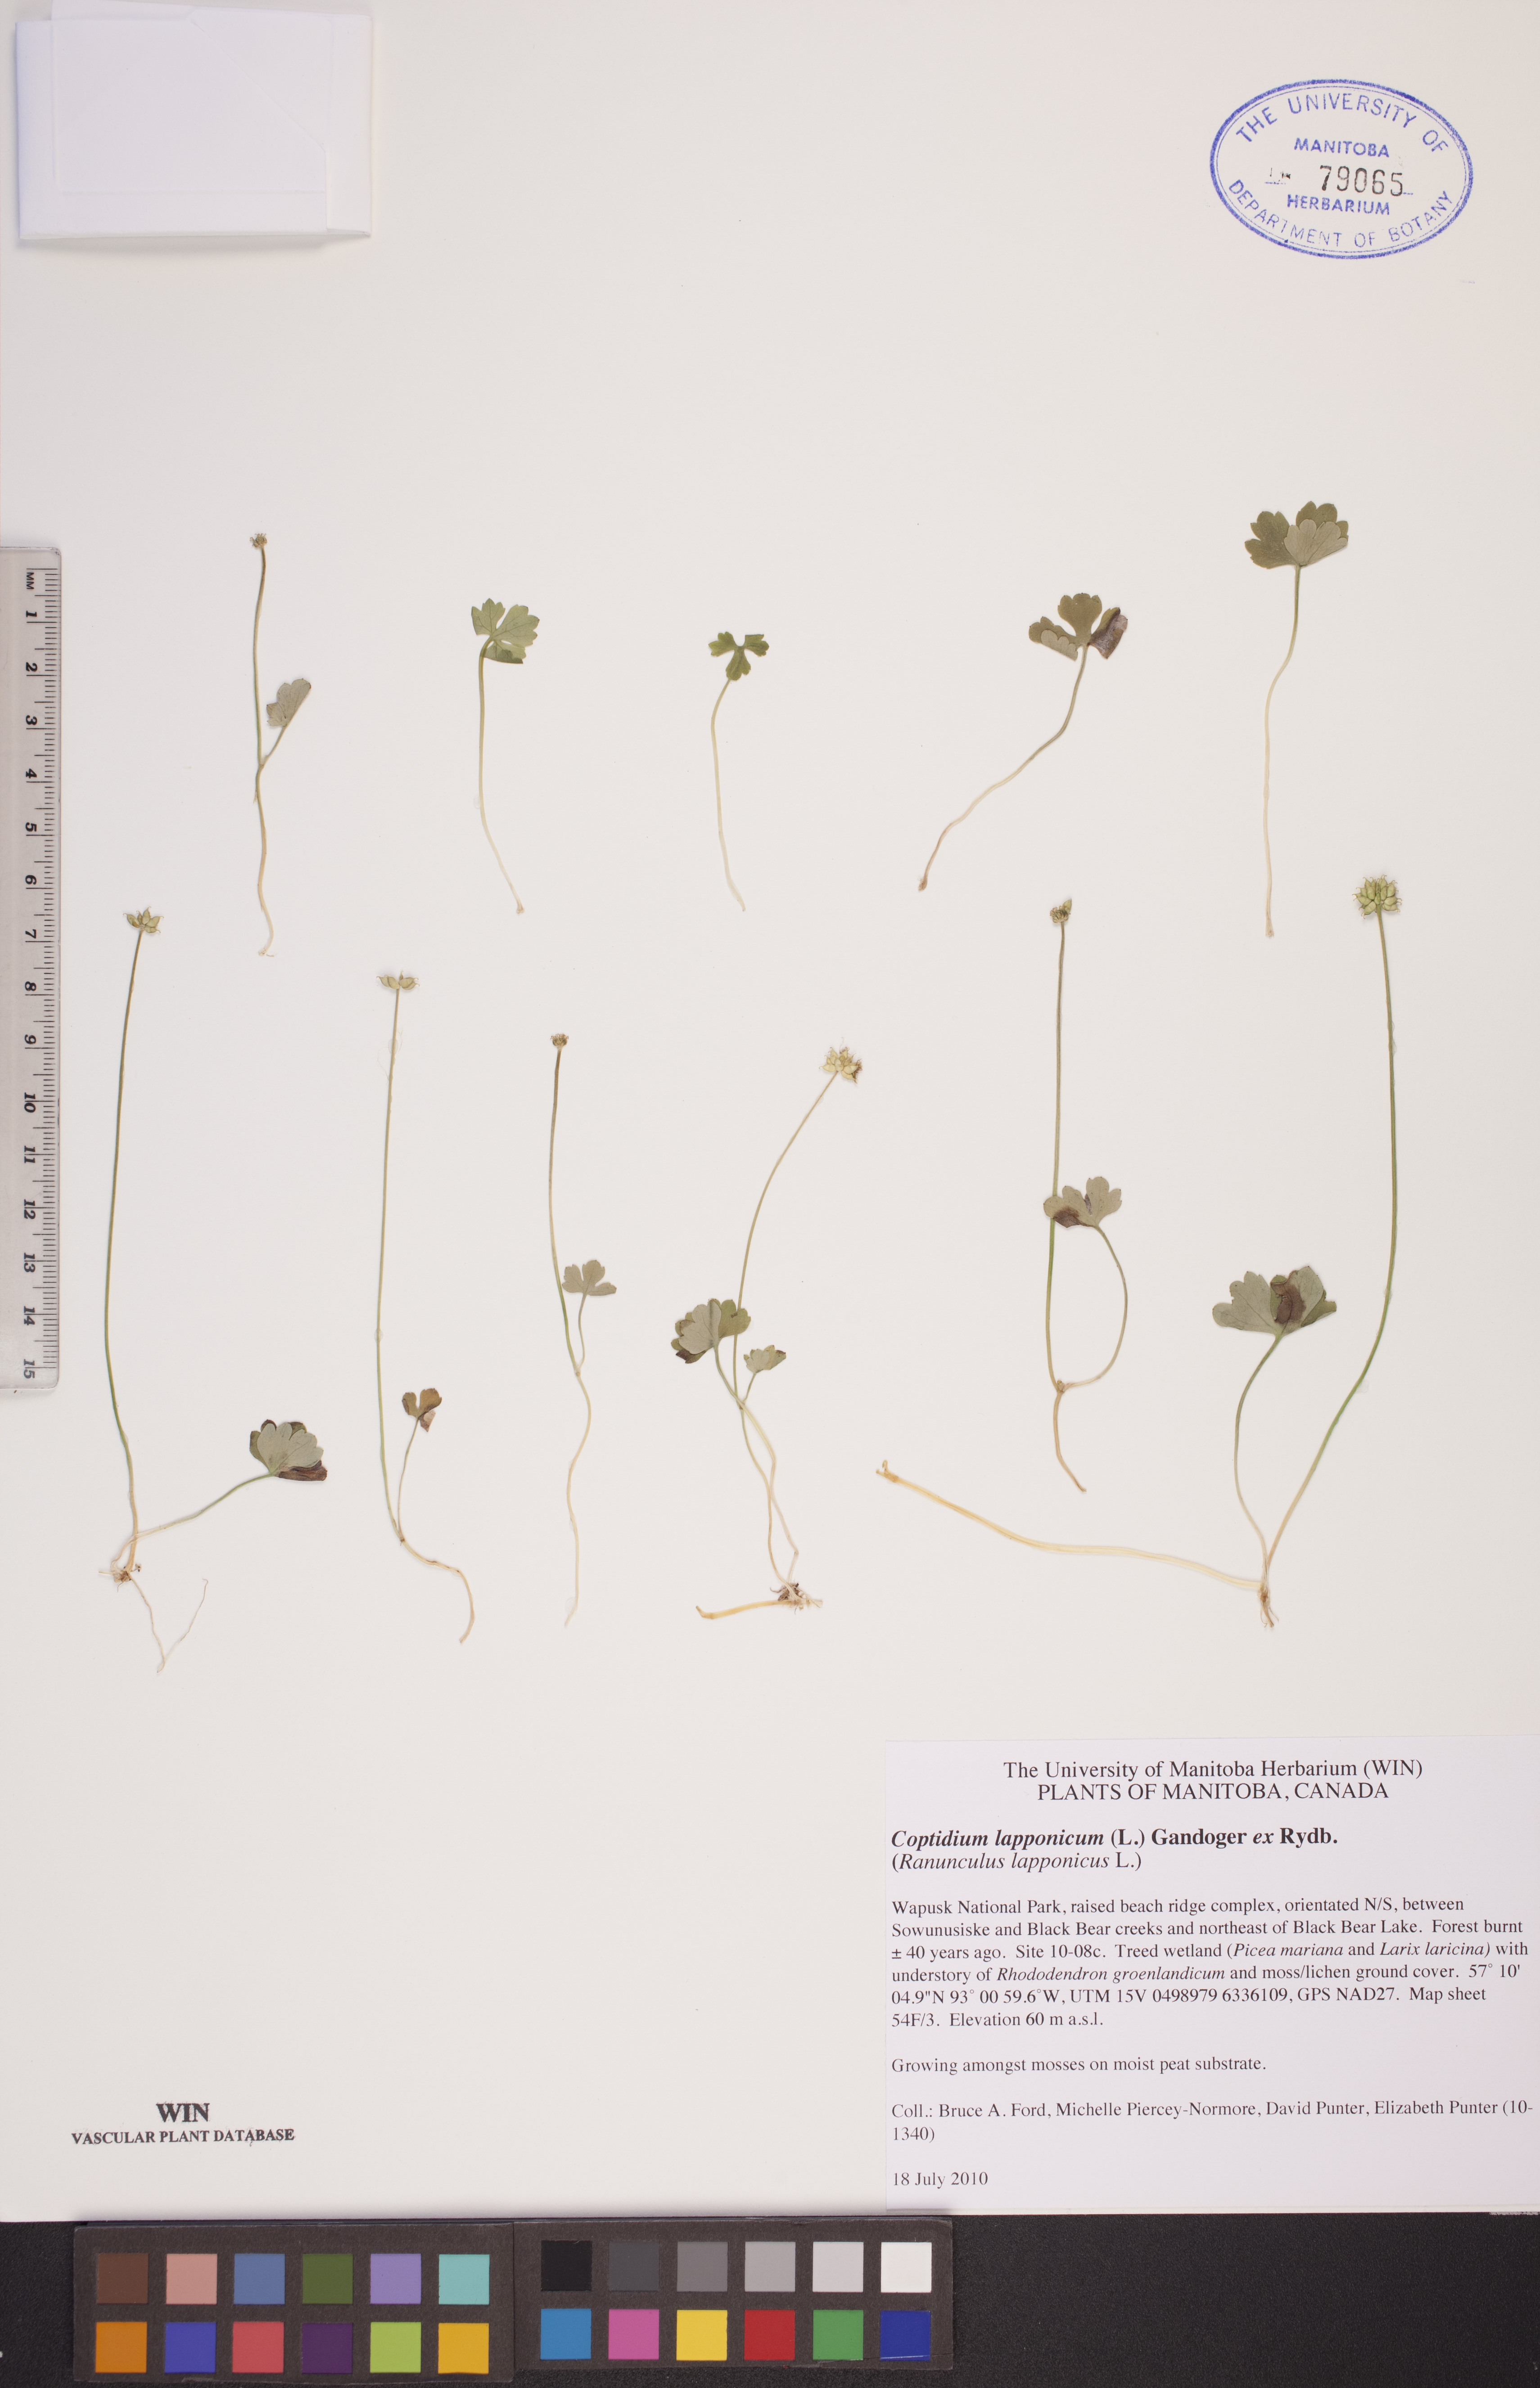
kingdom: Plantae
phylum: Tracheophyta
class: Magnoliopsida
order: Ranunculales
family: Ranunculaceae
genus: Coptidium
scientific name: Coptidium lapponicum
